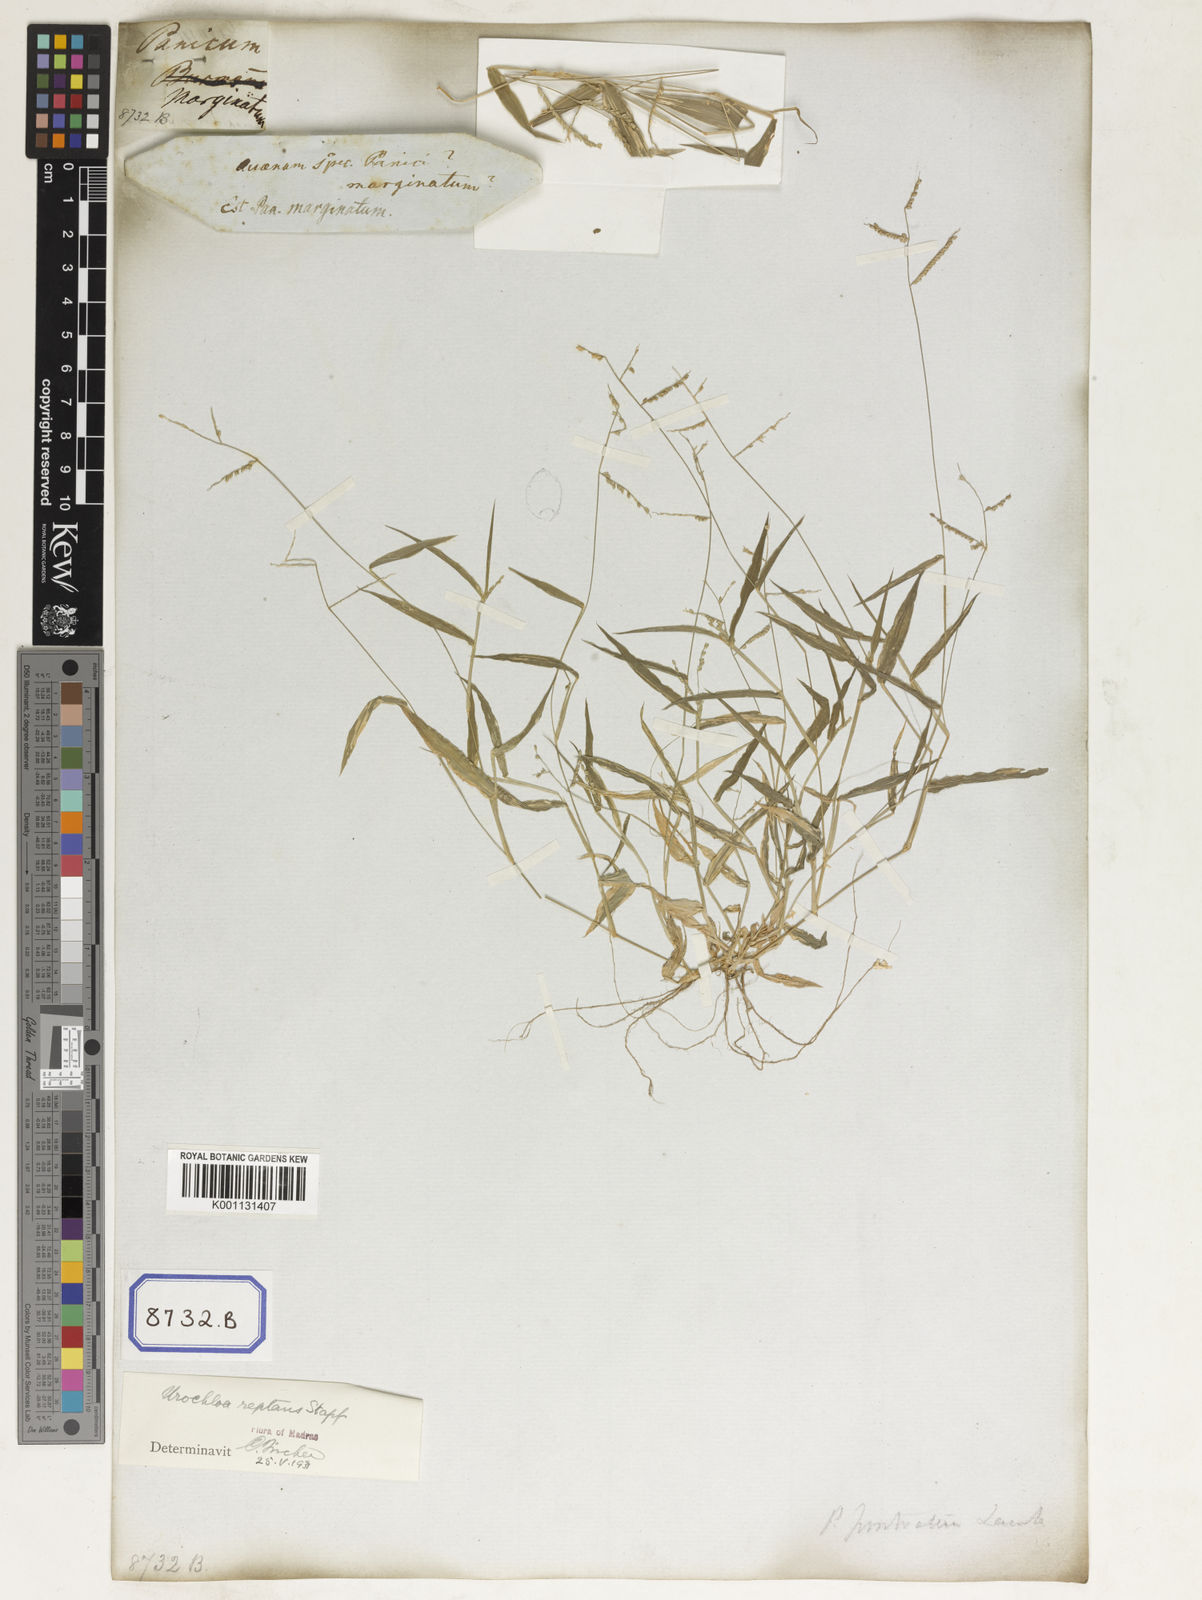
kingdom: Plantae
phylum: Tracheophyta
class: Liliopsida
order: Poales
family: Poaceae
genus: Panicum
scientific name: Panicum
